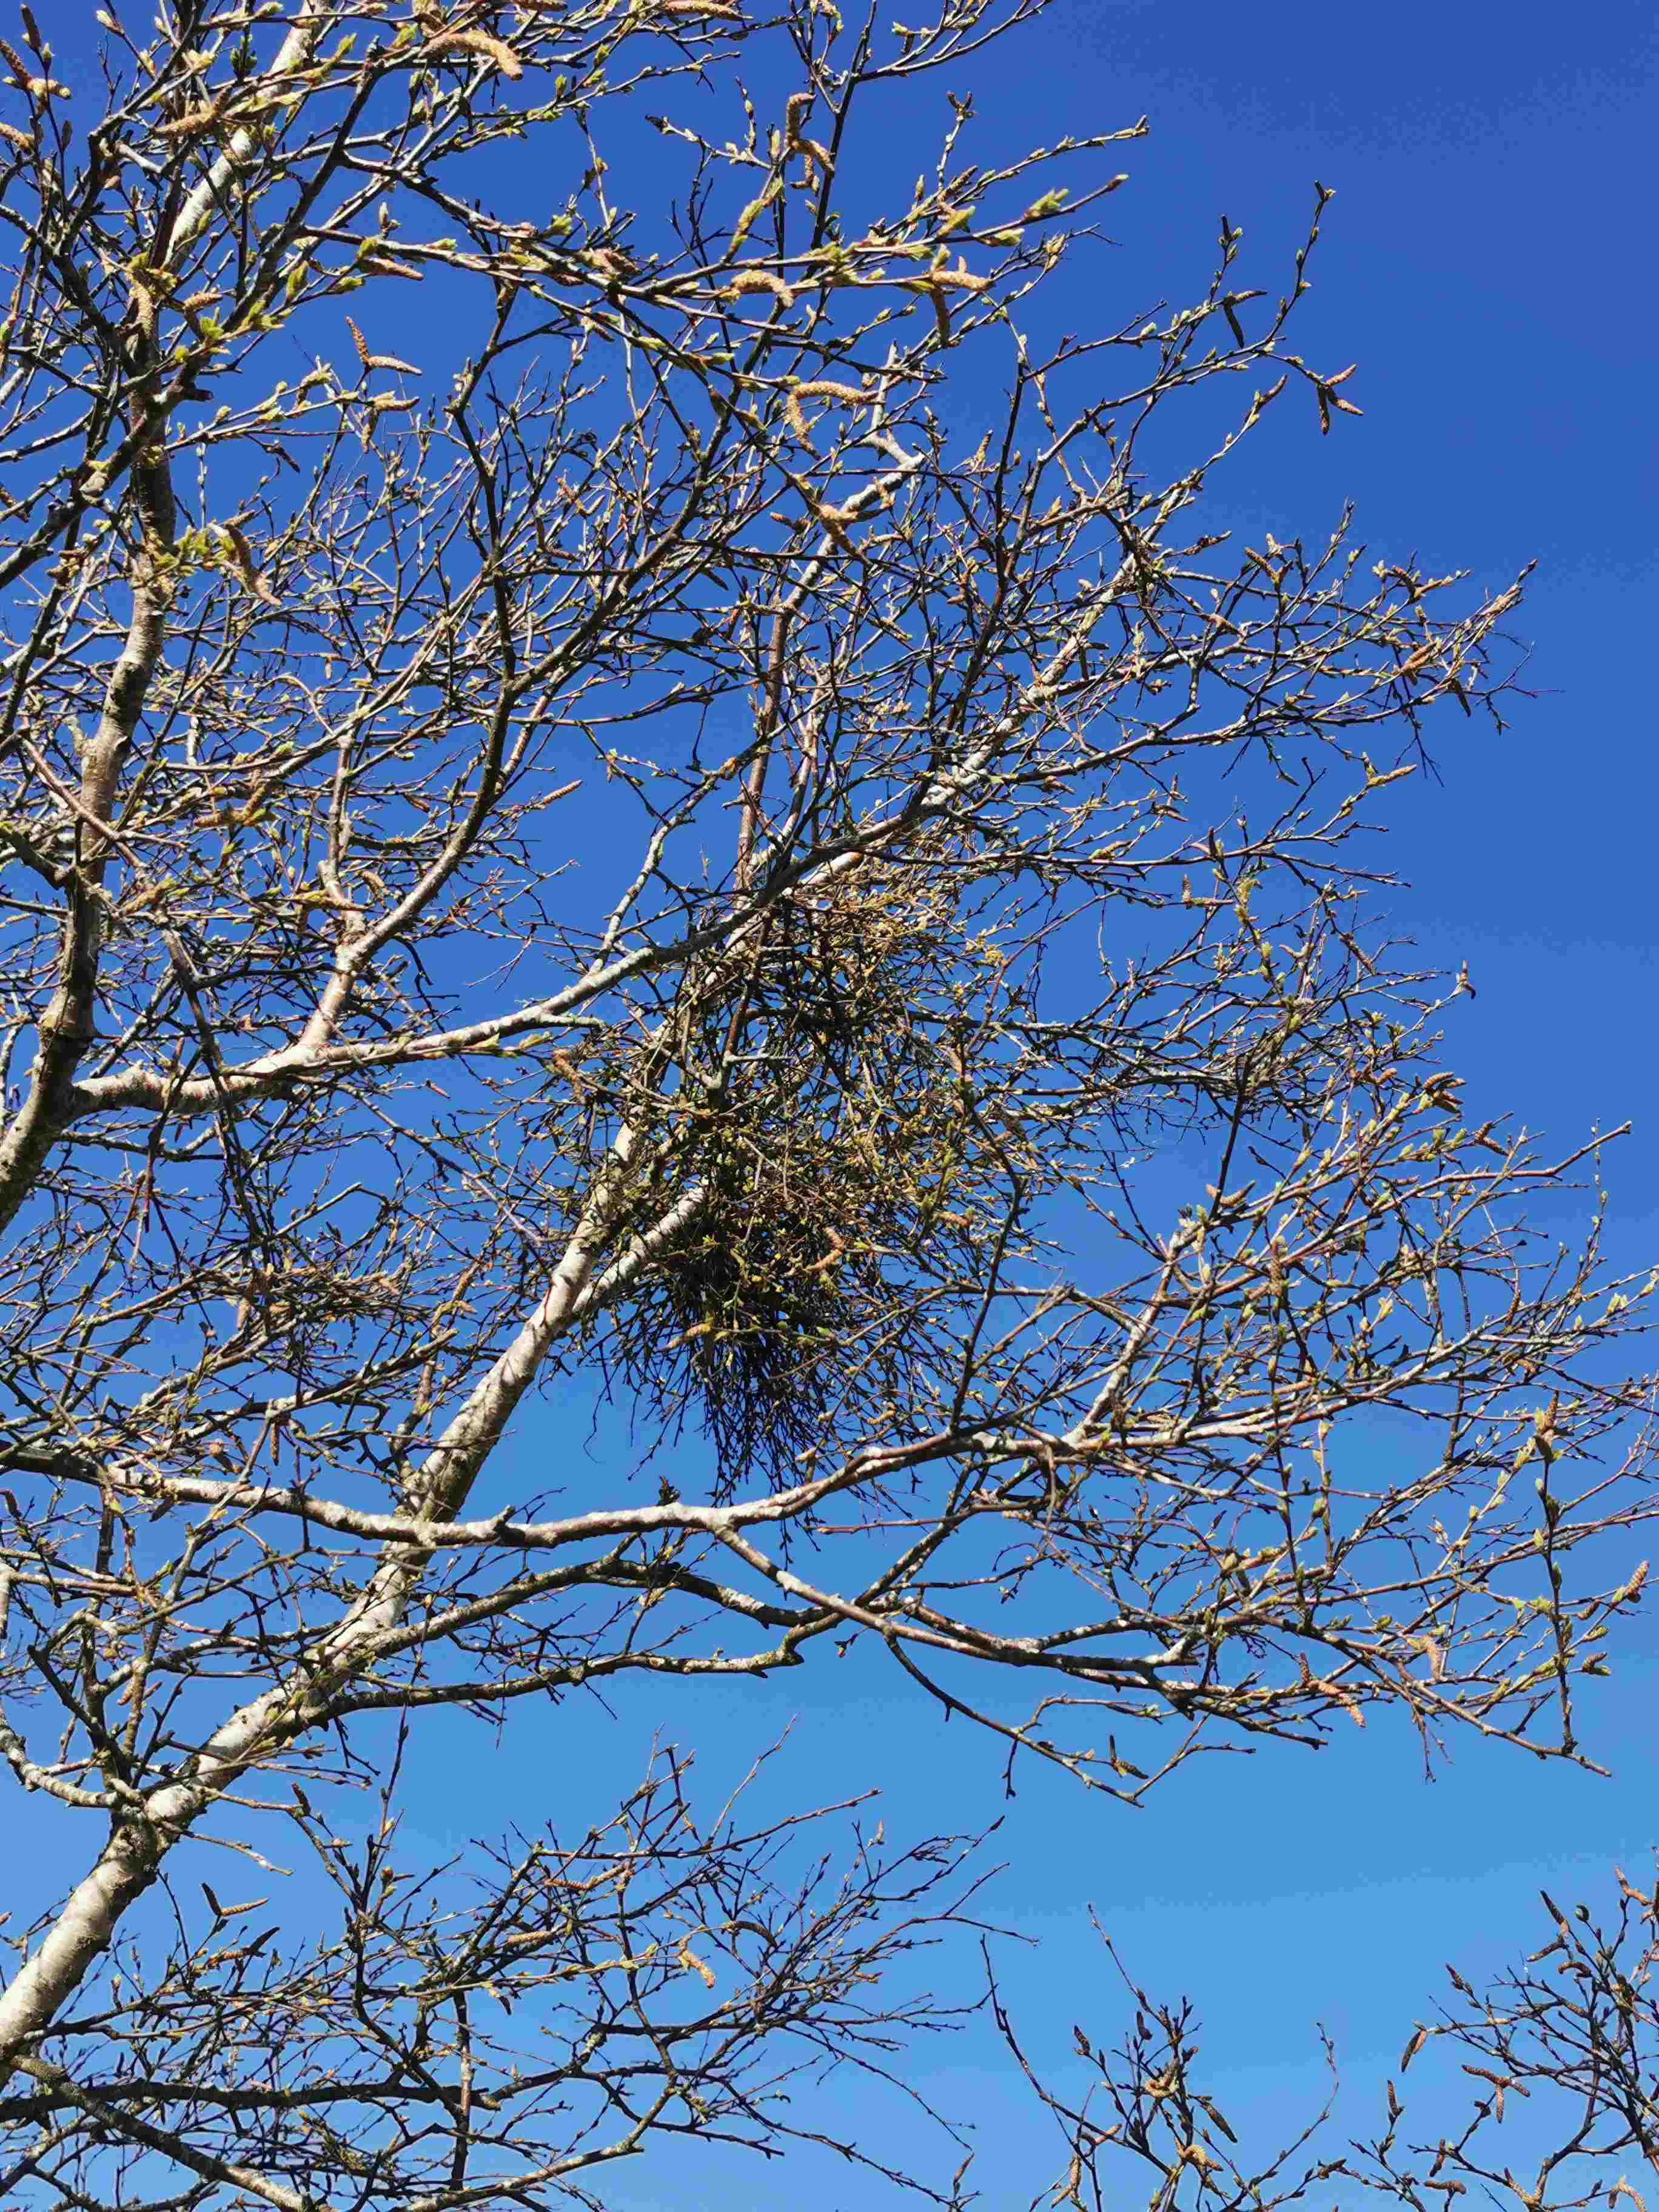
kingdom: Fungi
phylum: Ascomycota
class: Taphrinomycetes
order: Taphrinales
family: Taphrinaceae
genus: Taphrina
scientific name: Taphrina betulina
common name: hekse-sækdug
